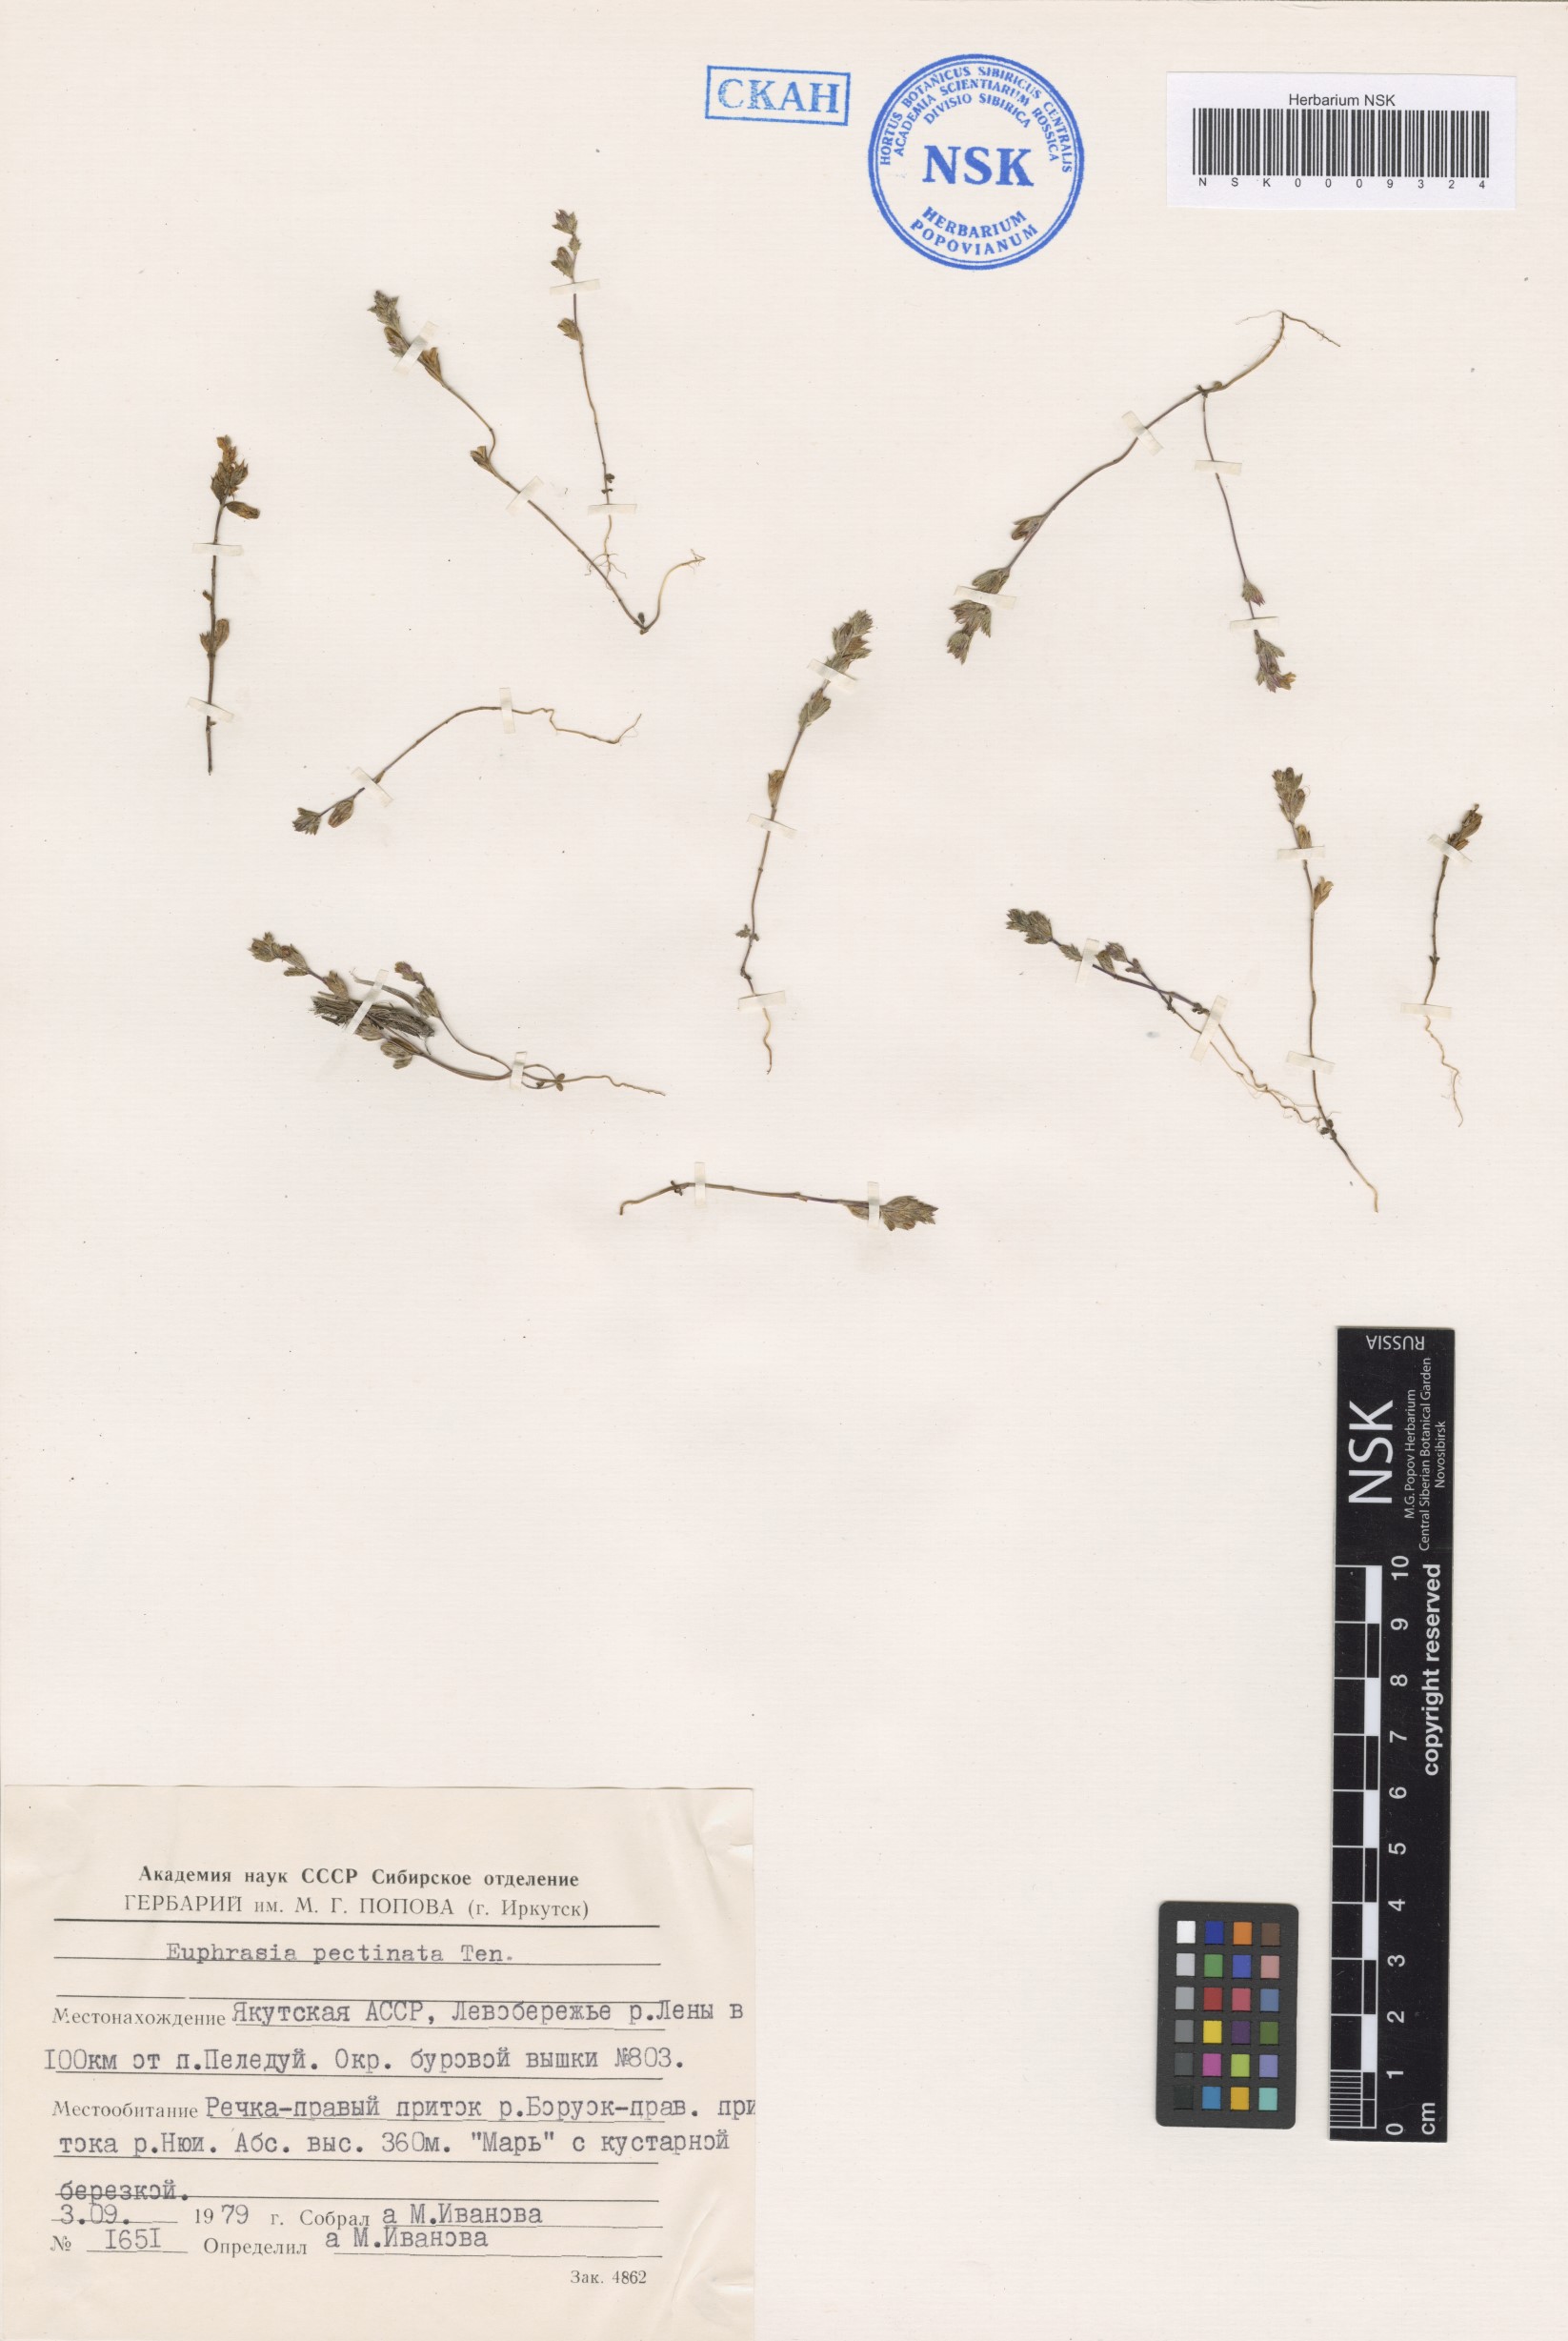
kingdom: Plantae
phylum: Tracheophyta
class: Magnoliopsida
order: Lamiales
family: Orobanchaceae
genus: Euphrasia
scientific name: Euphrasia pectinata
